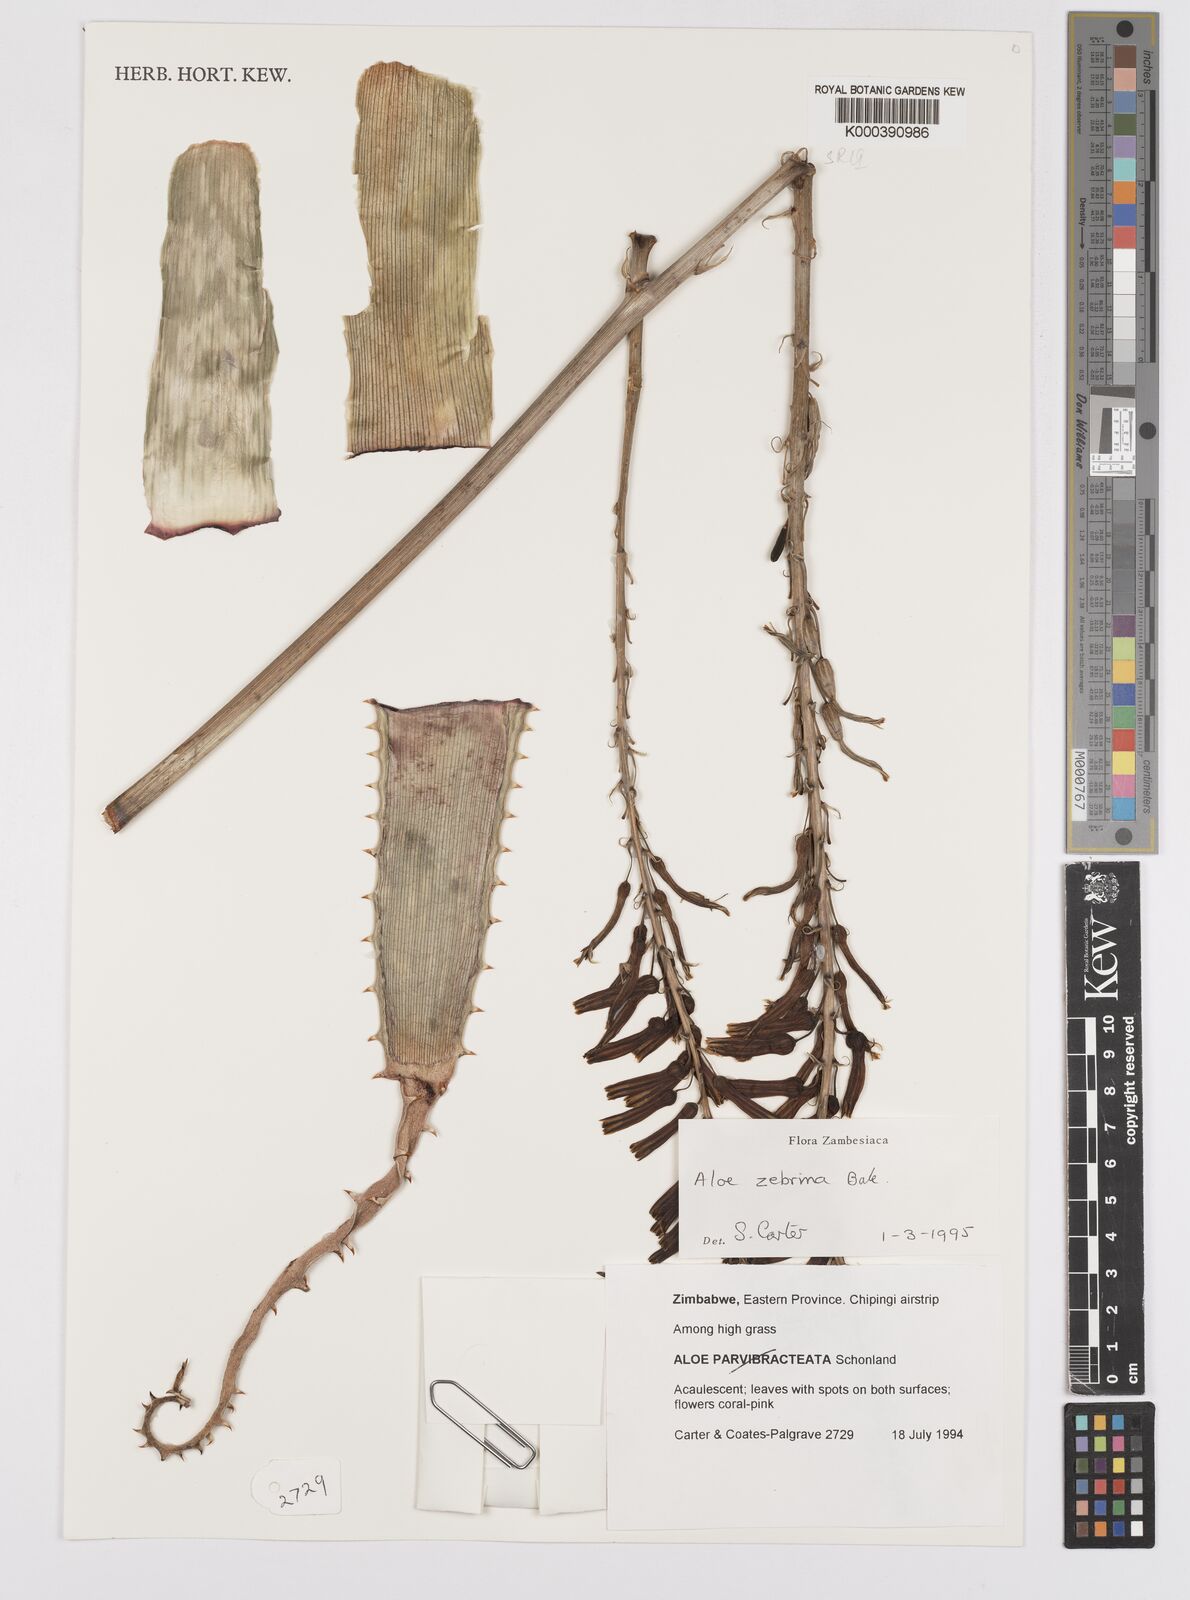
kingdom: Plantae
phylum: Tracheophyta
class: Liliopsida
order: Asparagales
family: Asphodelaceae
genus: Aloe
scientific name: Aloe zebrina
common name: Zebra-leaf aloe
